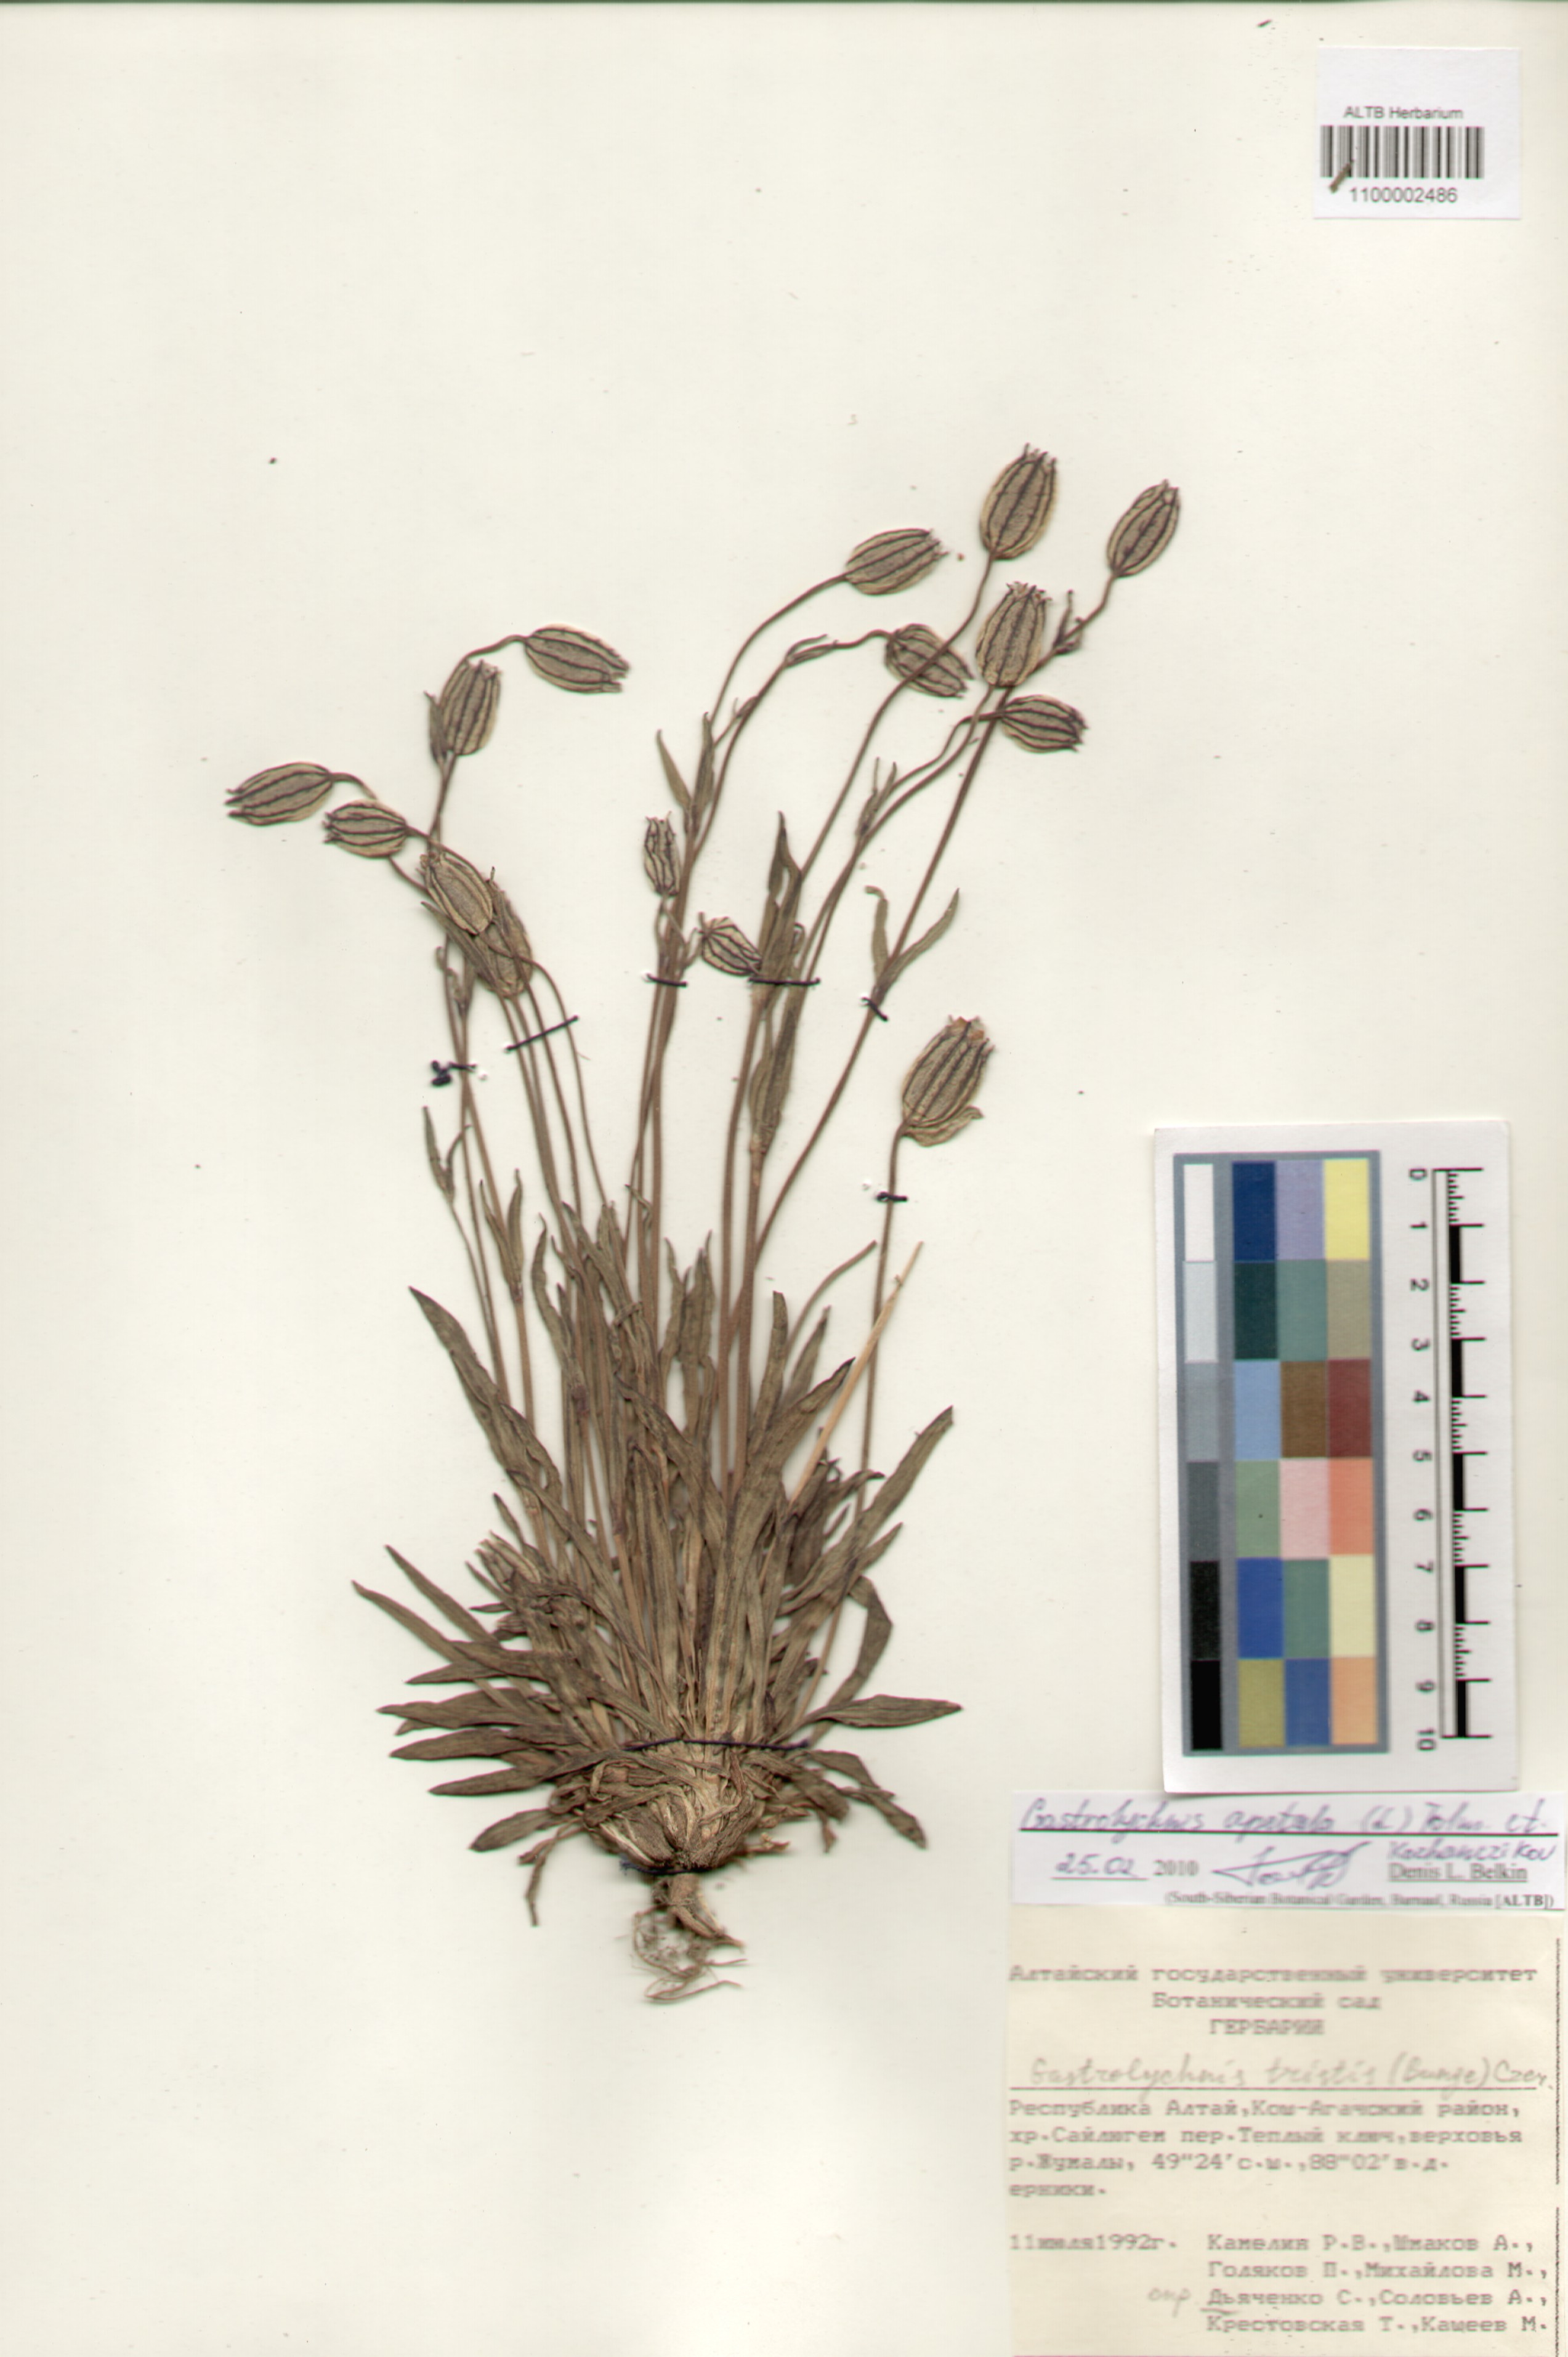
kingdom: Plantae
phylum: Tracheophyta
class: Magnoliopsida
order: Caryophyllales
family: Caryophyllaceae
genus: Silene
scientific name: Silene wahlbergella
